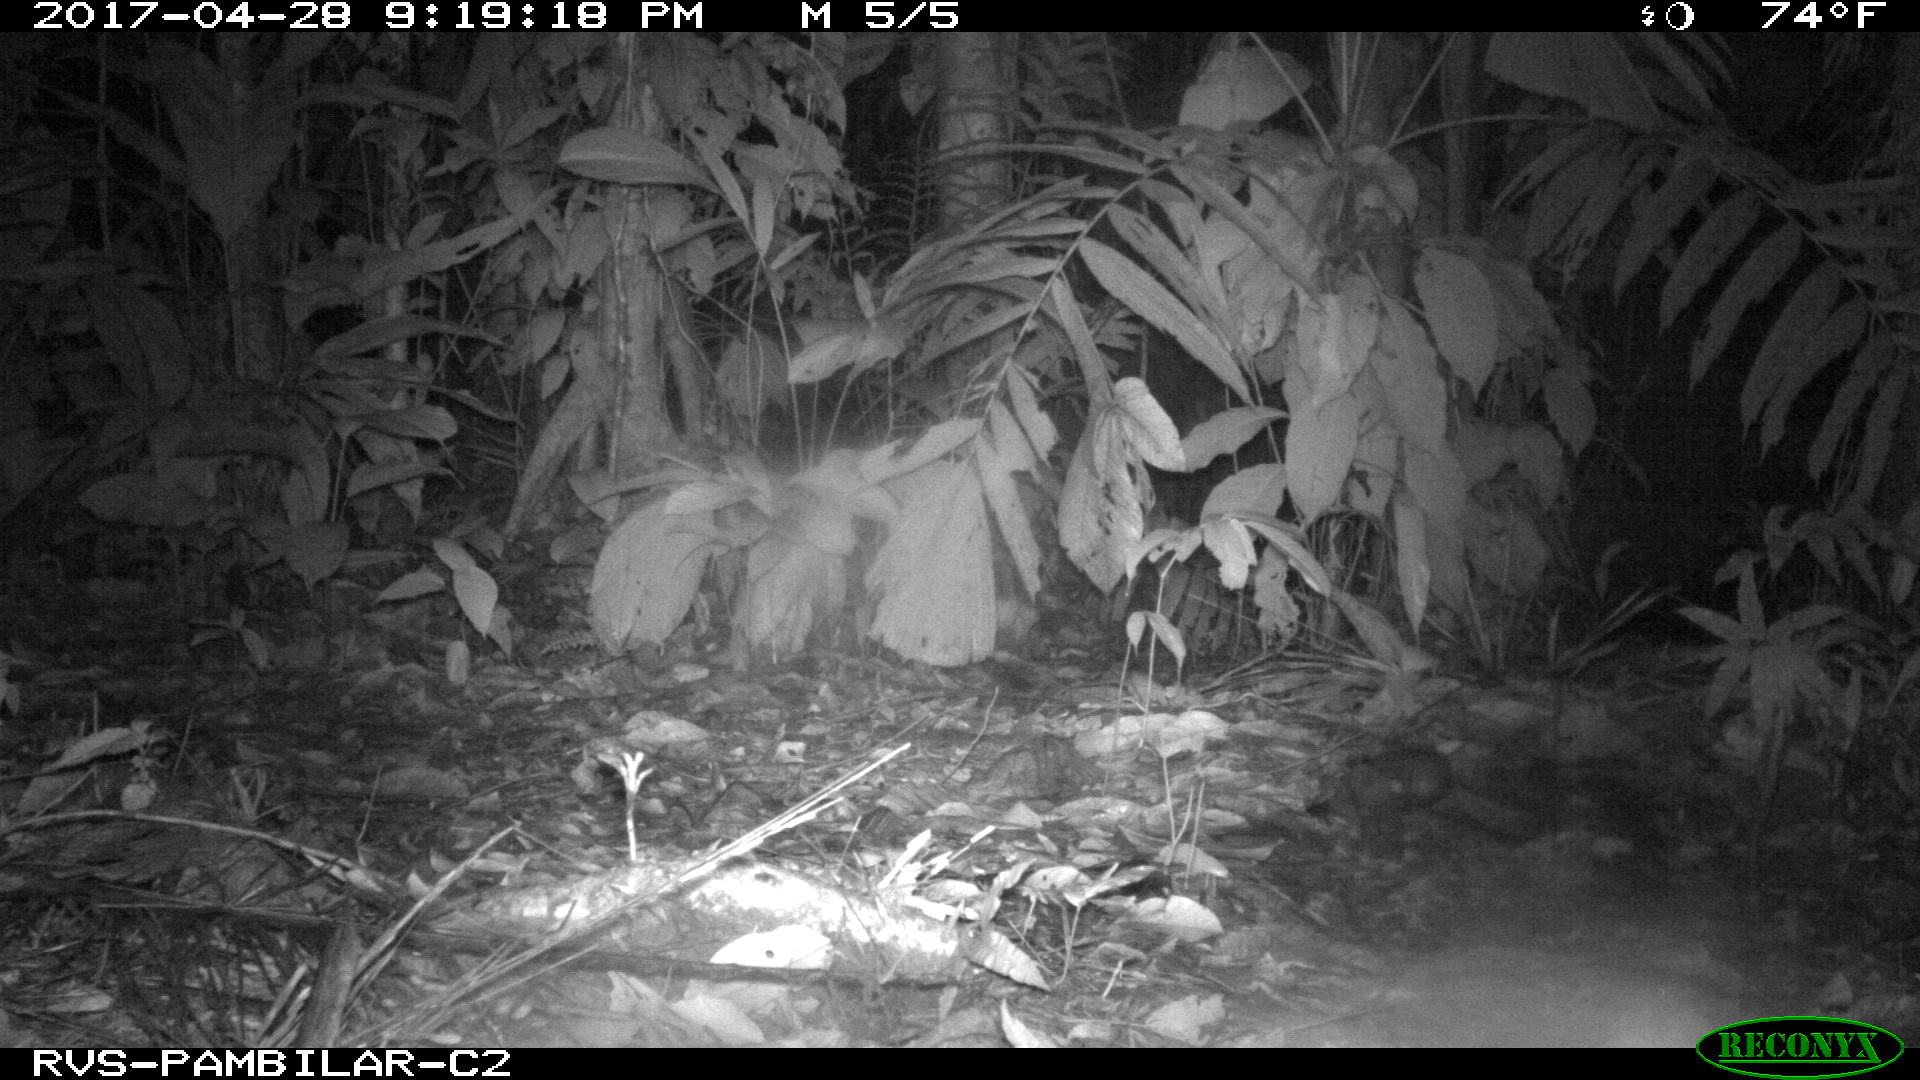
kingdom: Animalia
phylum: Chordata
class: Mammalia
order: Rodentia
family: Dasyproctidae
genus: Dasyprocta
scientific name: Dasyprocta punctata
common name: Central american agouti
